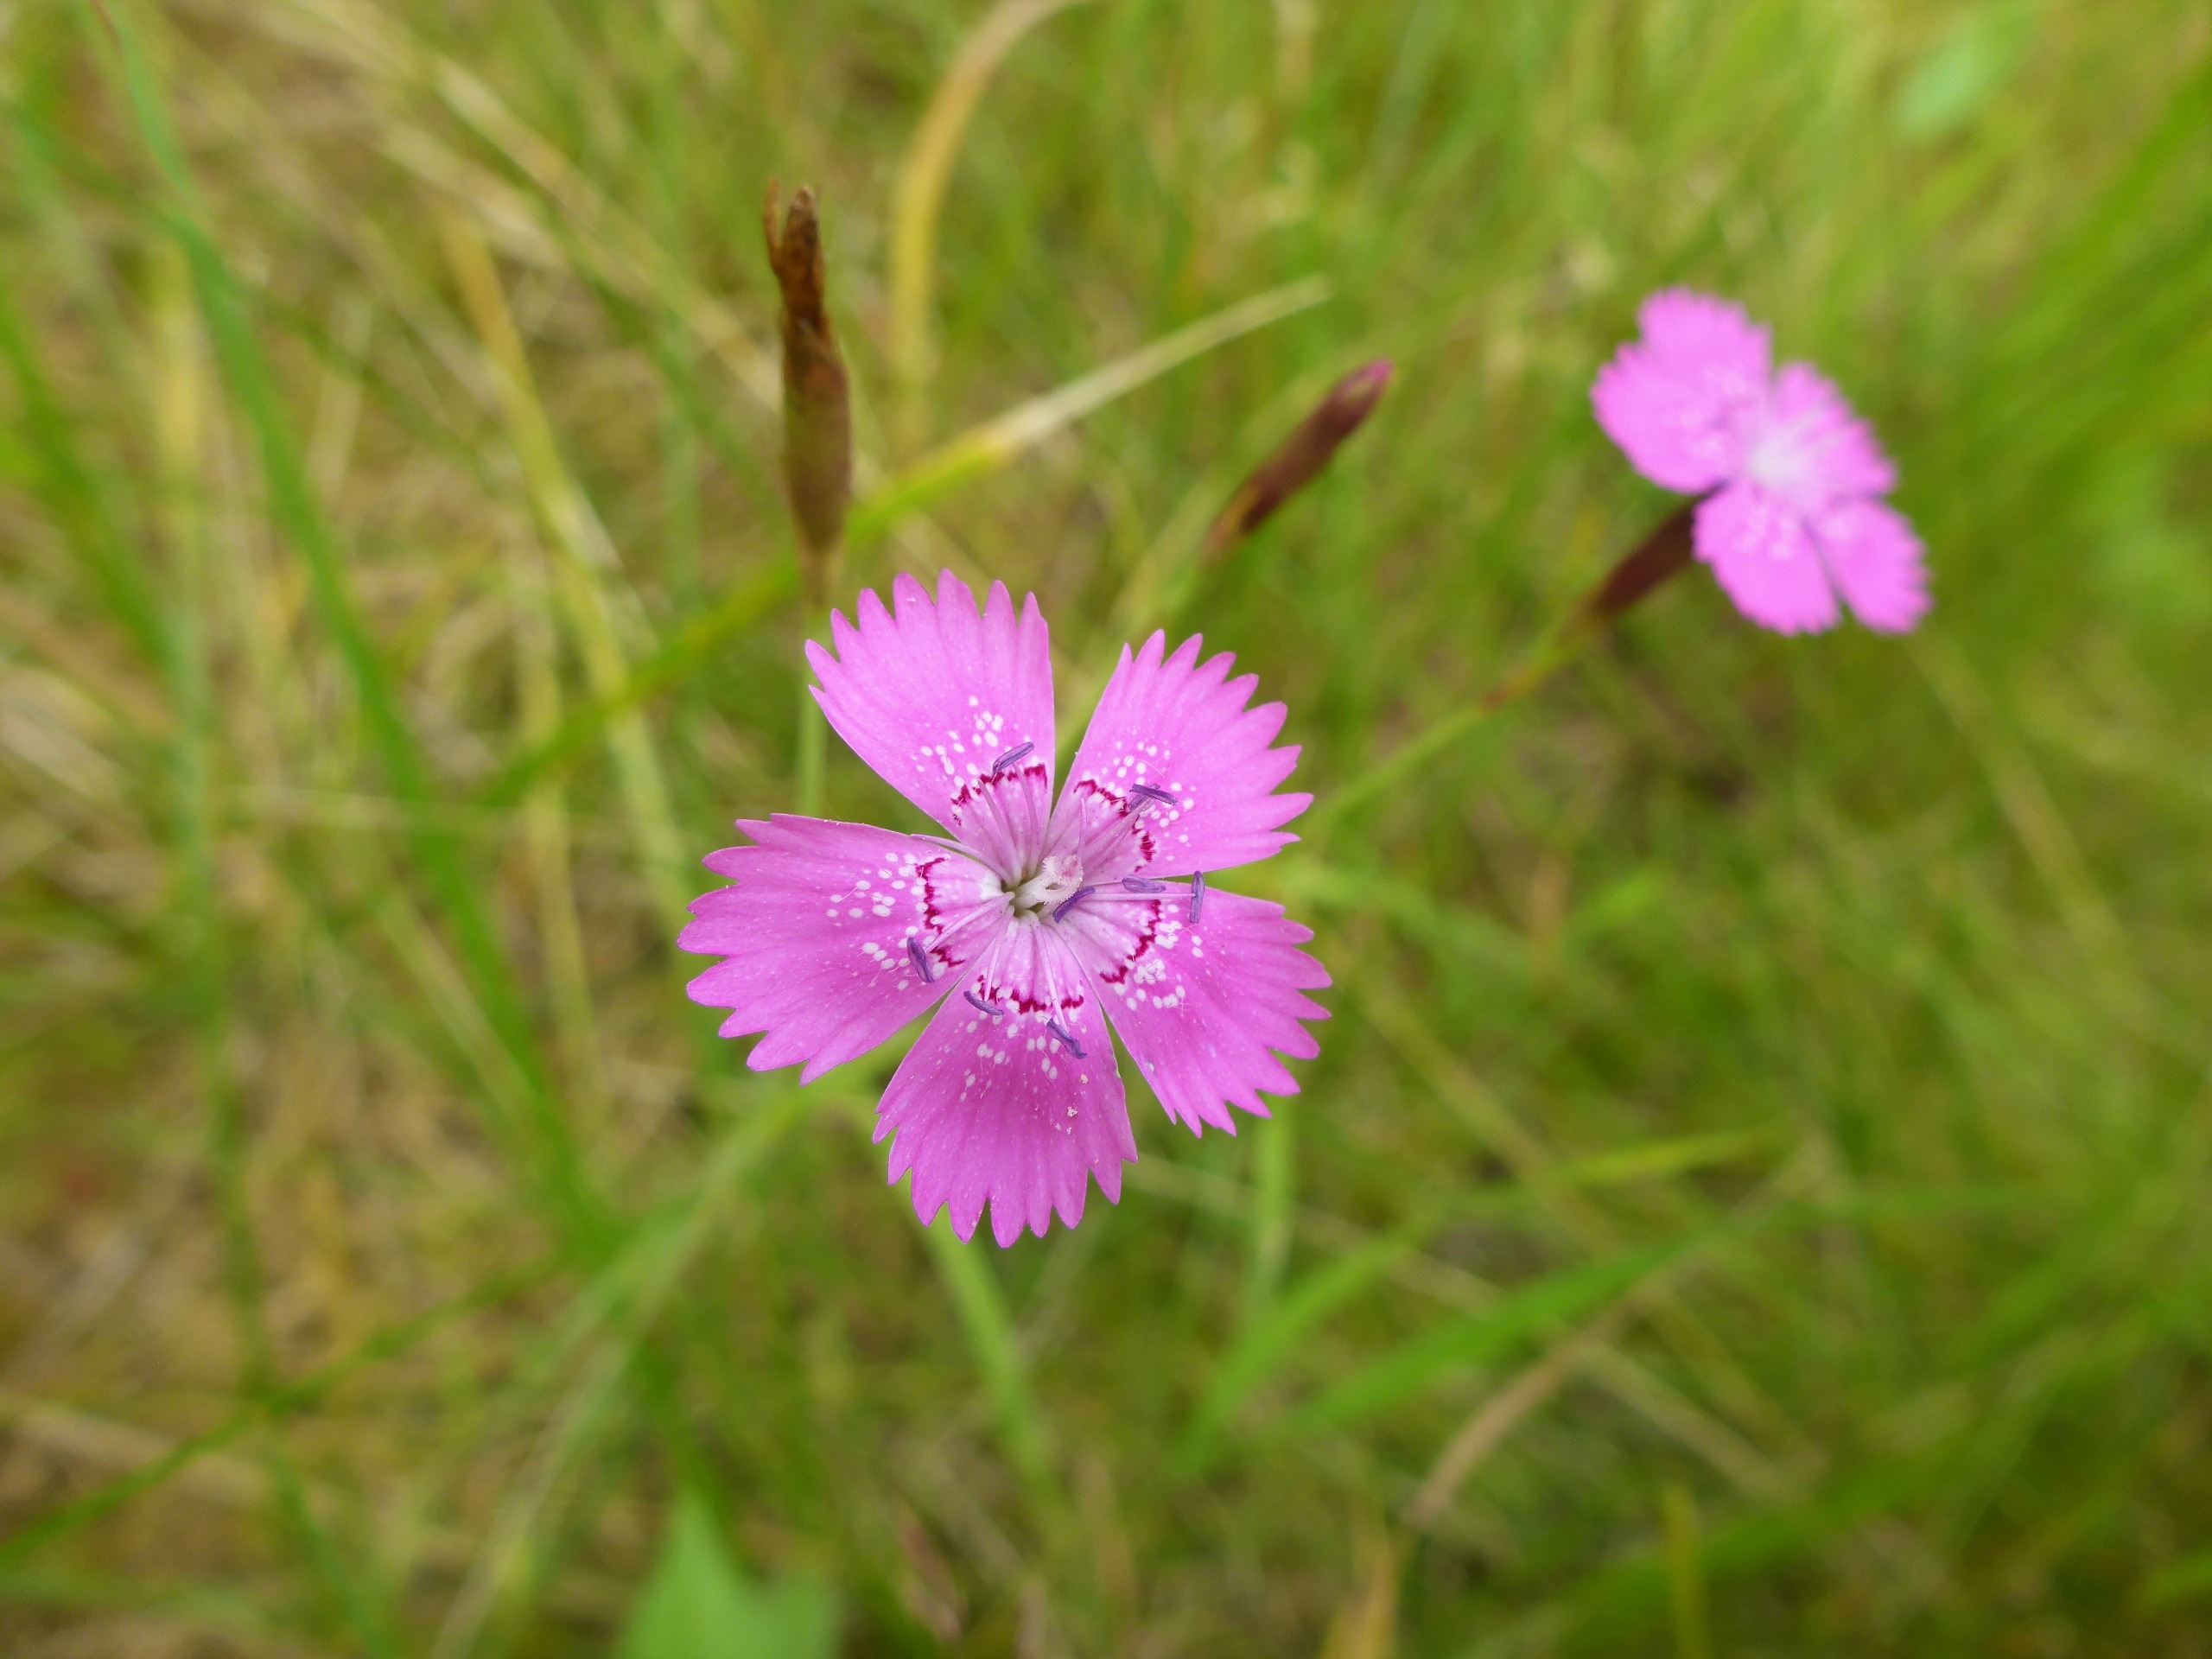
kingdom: Plantae
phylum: Tracheophyta
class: Magnoliopsida
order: Caryophyllales
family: Caryophyllaceae
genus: Dianthus
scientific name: Dianthus deltoides
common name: Bakke-nellike
